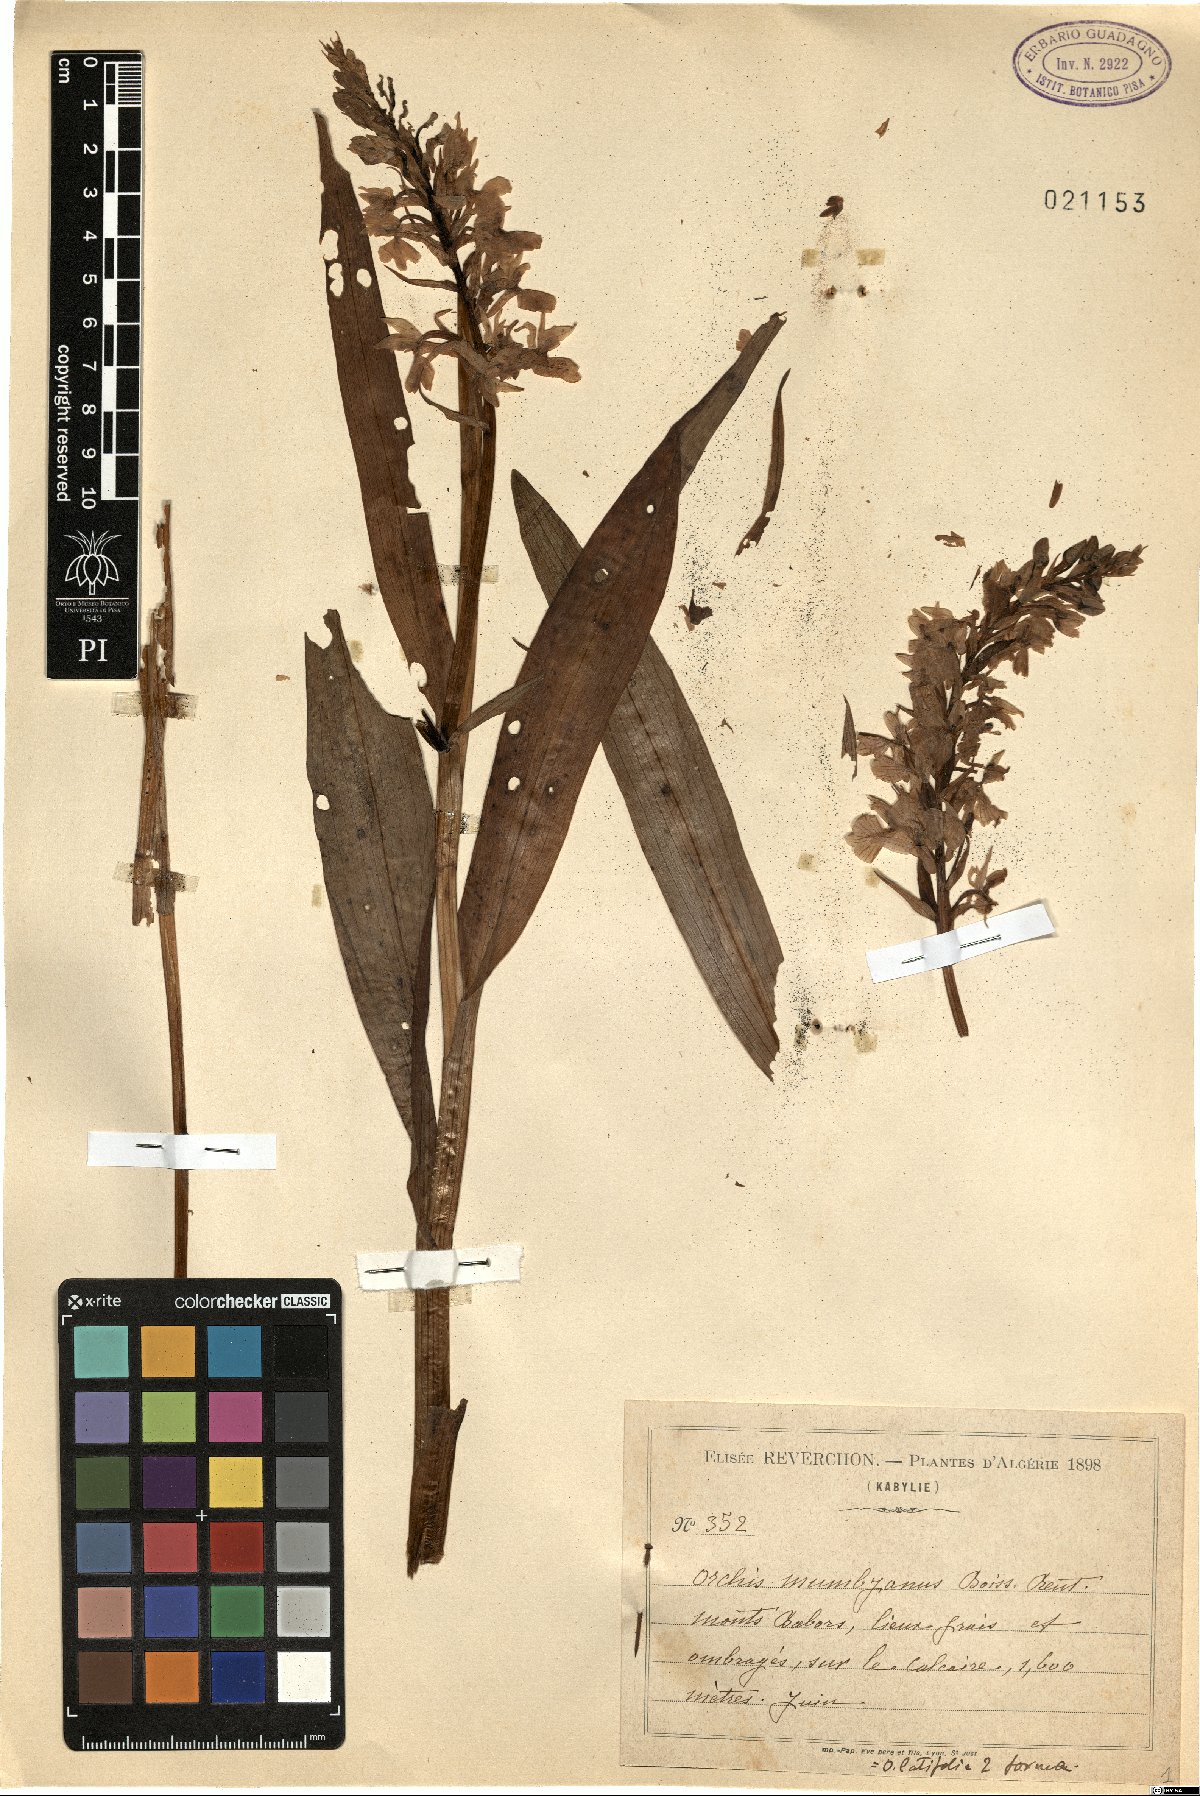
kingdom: Plantae
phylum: Tracheophyta
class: Liliopsida
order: Asparagales
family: Orchidaceae
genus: Dactylorhiza
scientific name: Dactylorhiza elata
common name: Stately dactylorhiza
